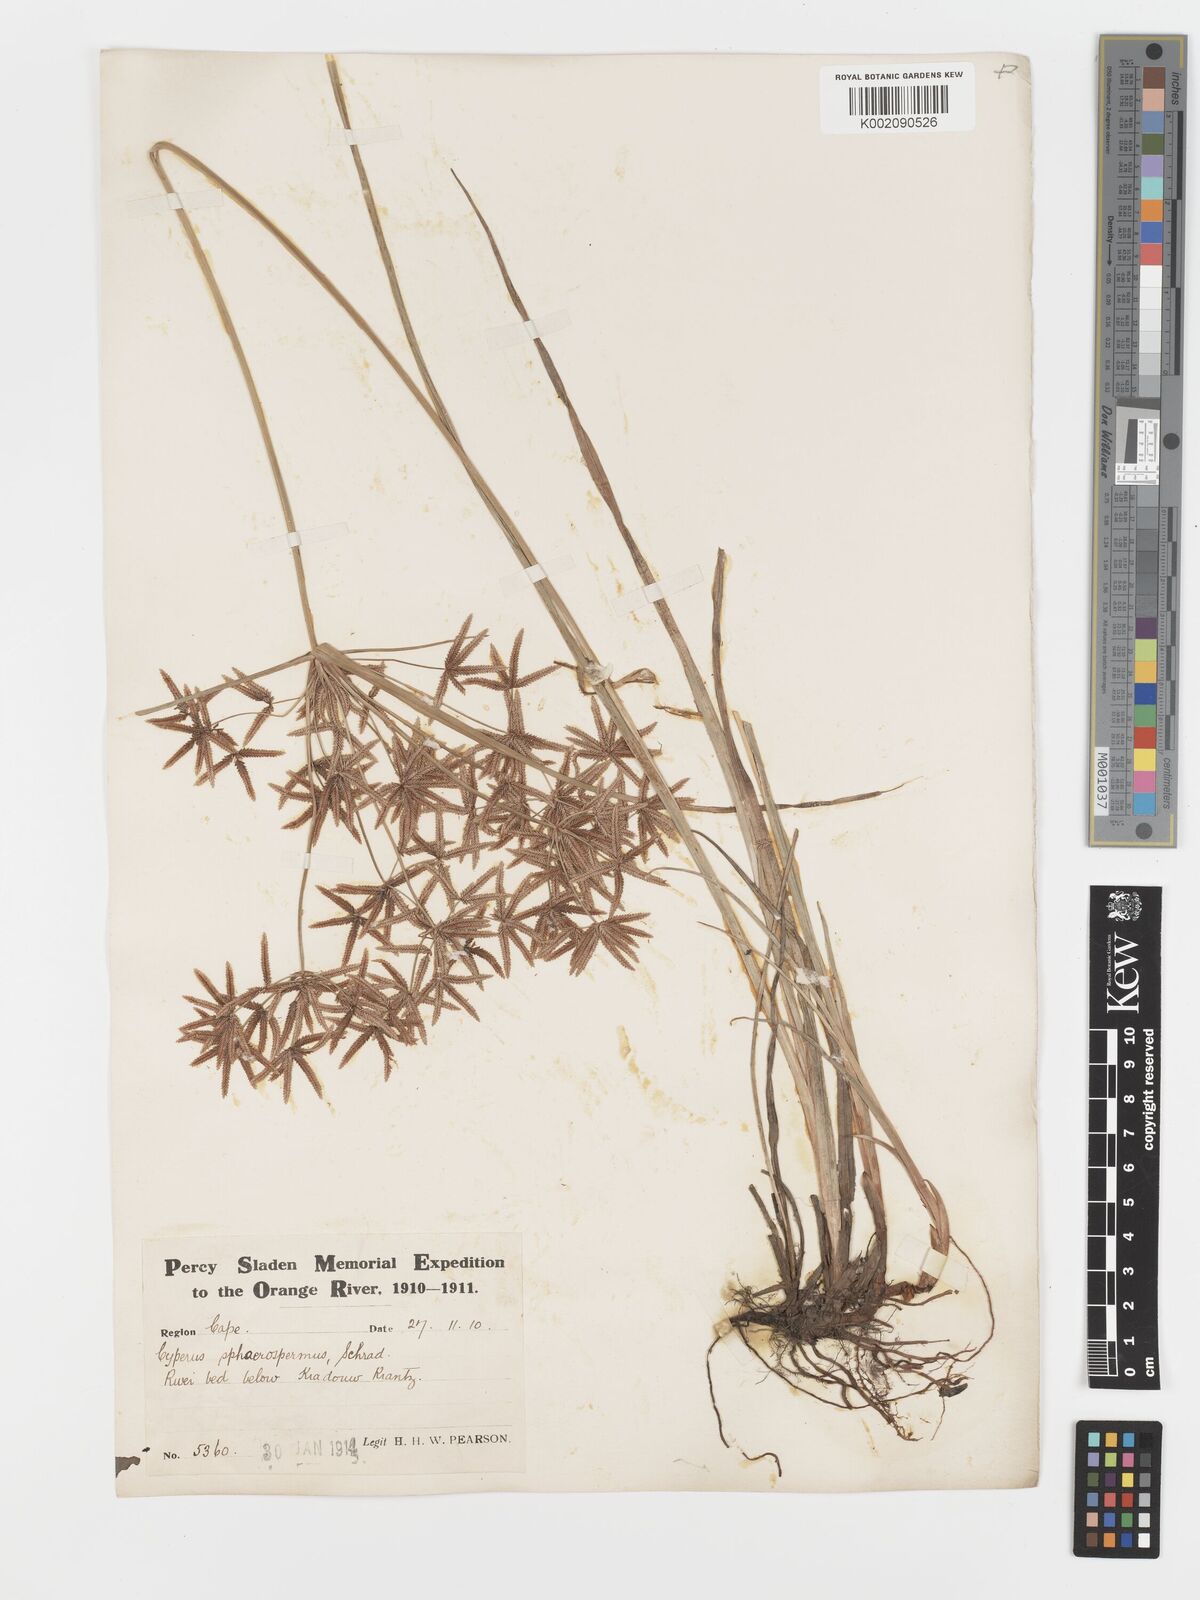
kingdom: Plantae
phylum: Tracheophyta
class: Liliopsida
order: Poales
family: Cyperaceae
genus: Cyperus
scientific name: Cyperus sphaerospermus
